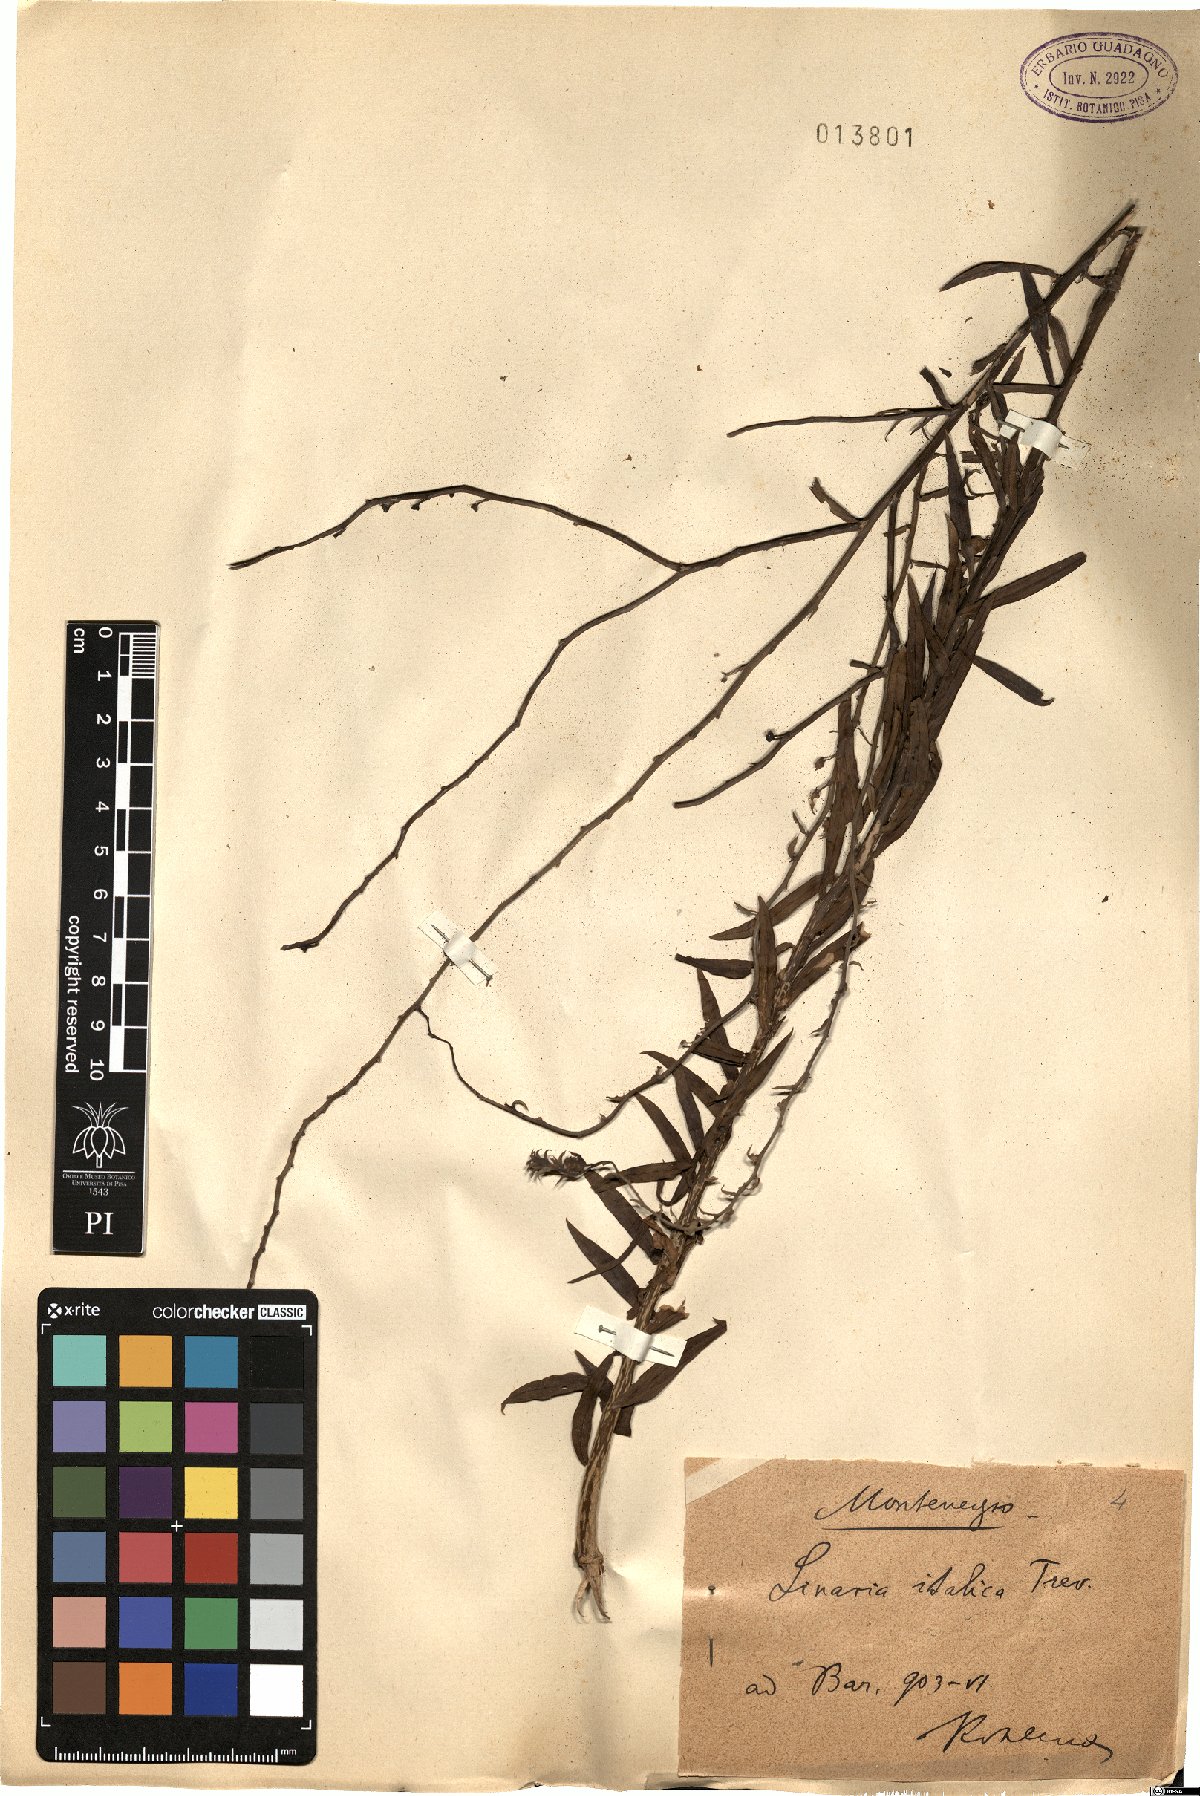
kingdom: Plantae
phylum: Tracheophyta
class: Magnoliopsida
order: Lamiales
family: Plantaginaceae
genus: Linaria
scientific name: Linaria angustissima
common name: Italian toadflax
